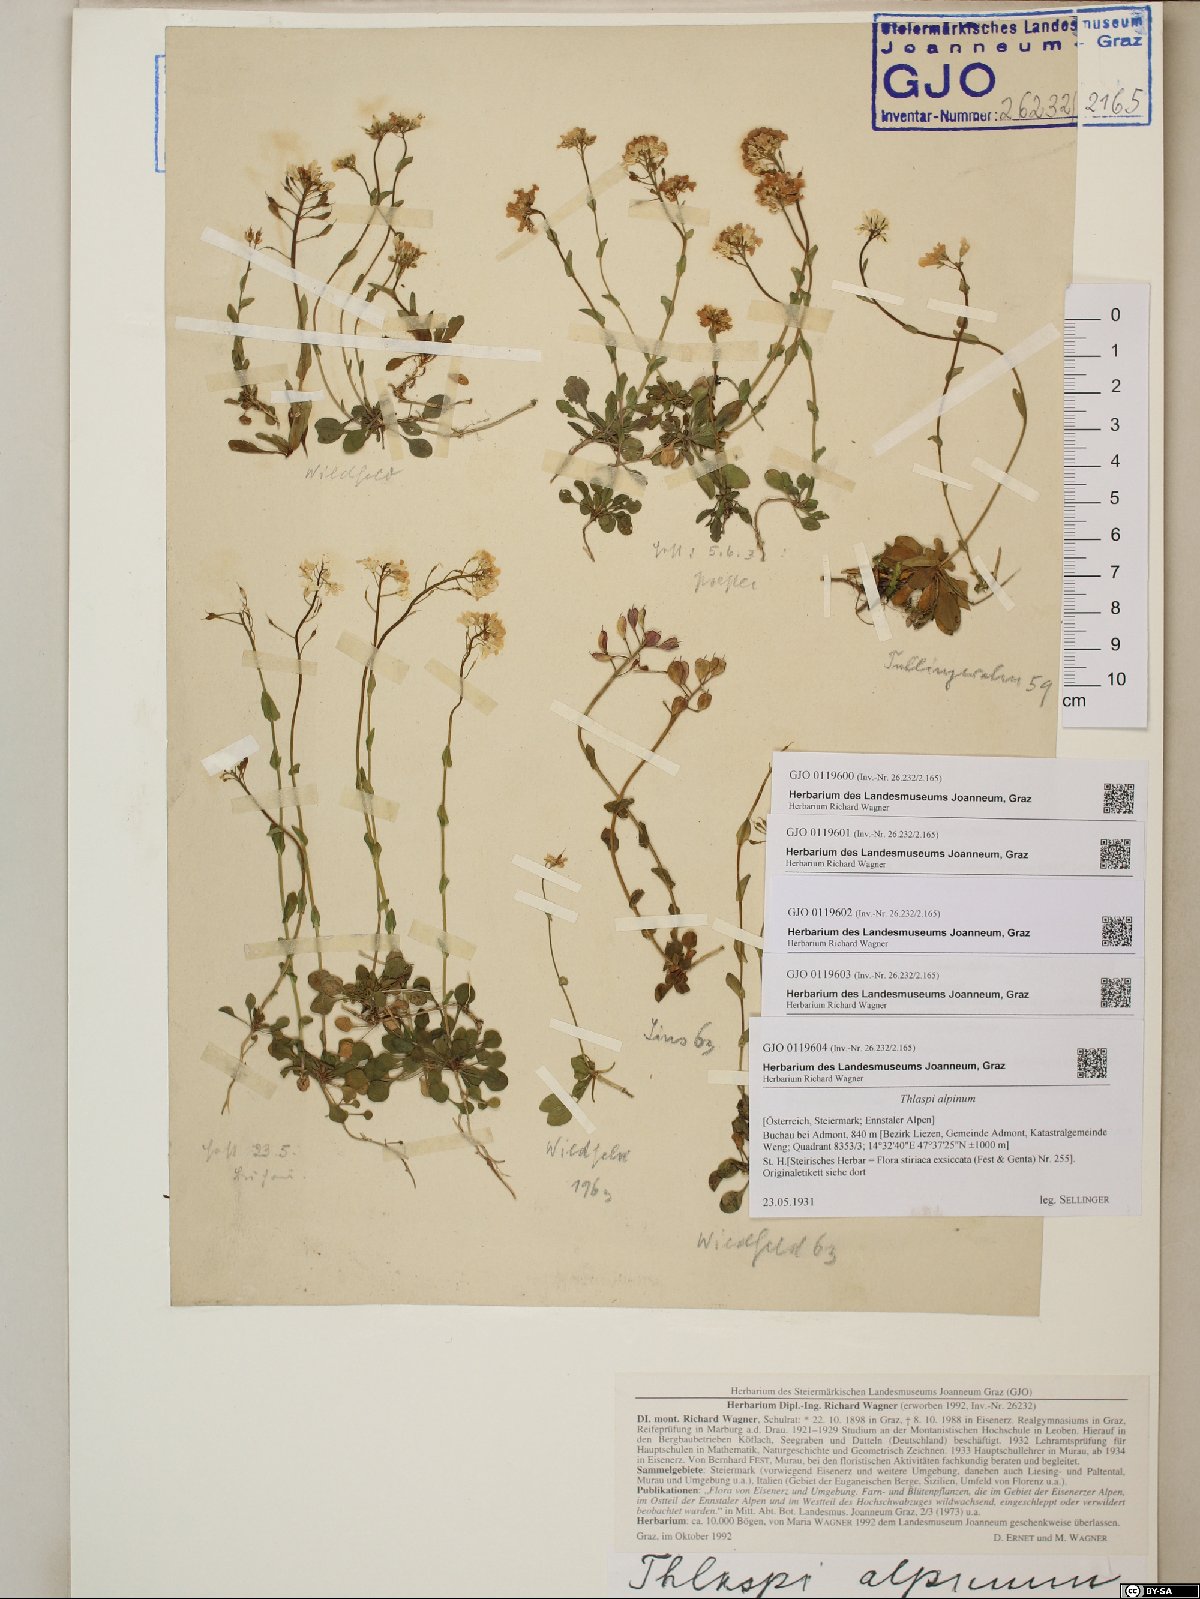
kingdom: Plantae
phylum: Tracheophyta
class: Magnoliopsida
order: Brassicales
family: Brassicaceae
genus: Noccaea
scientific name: Noccaea alpestris
